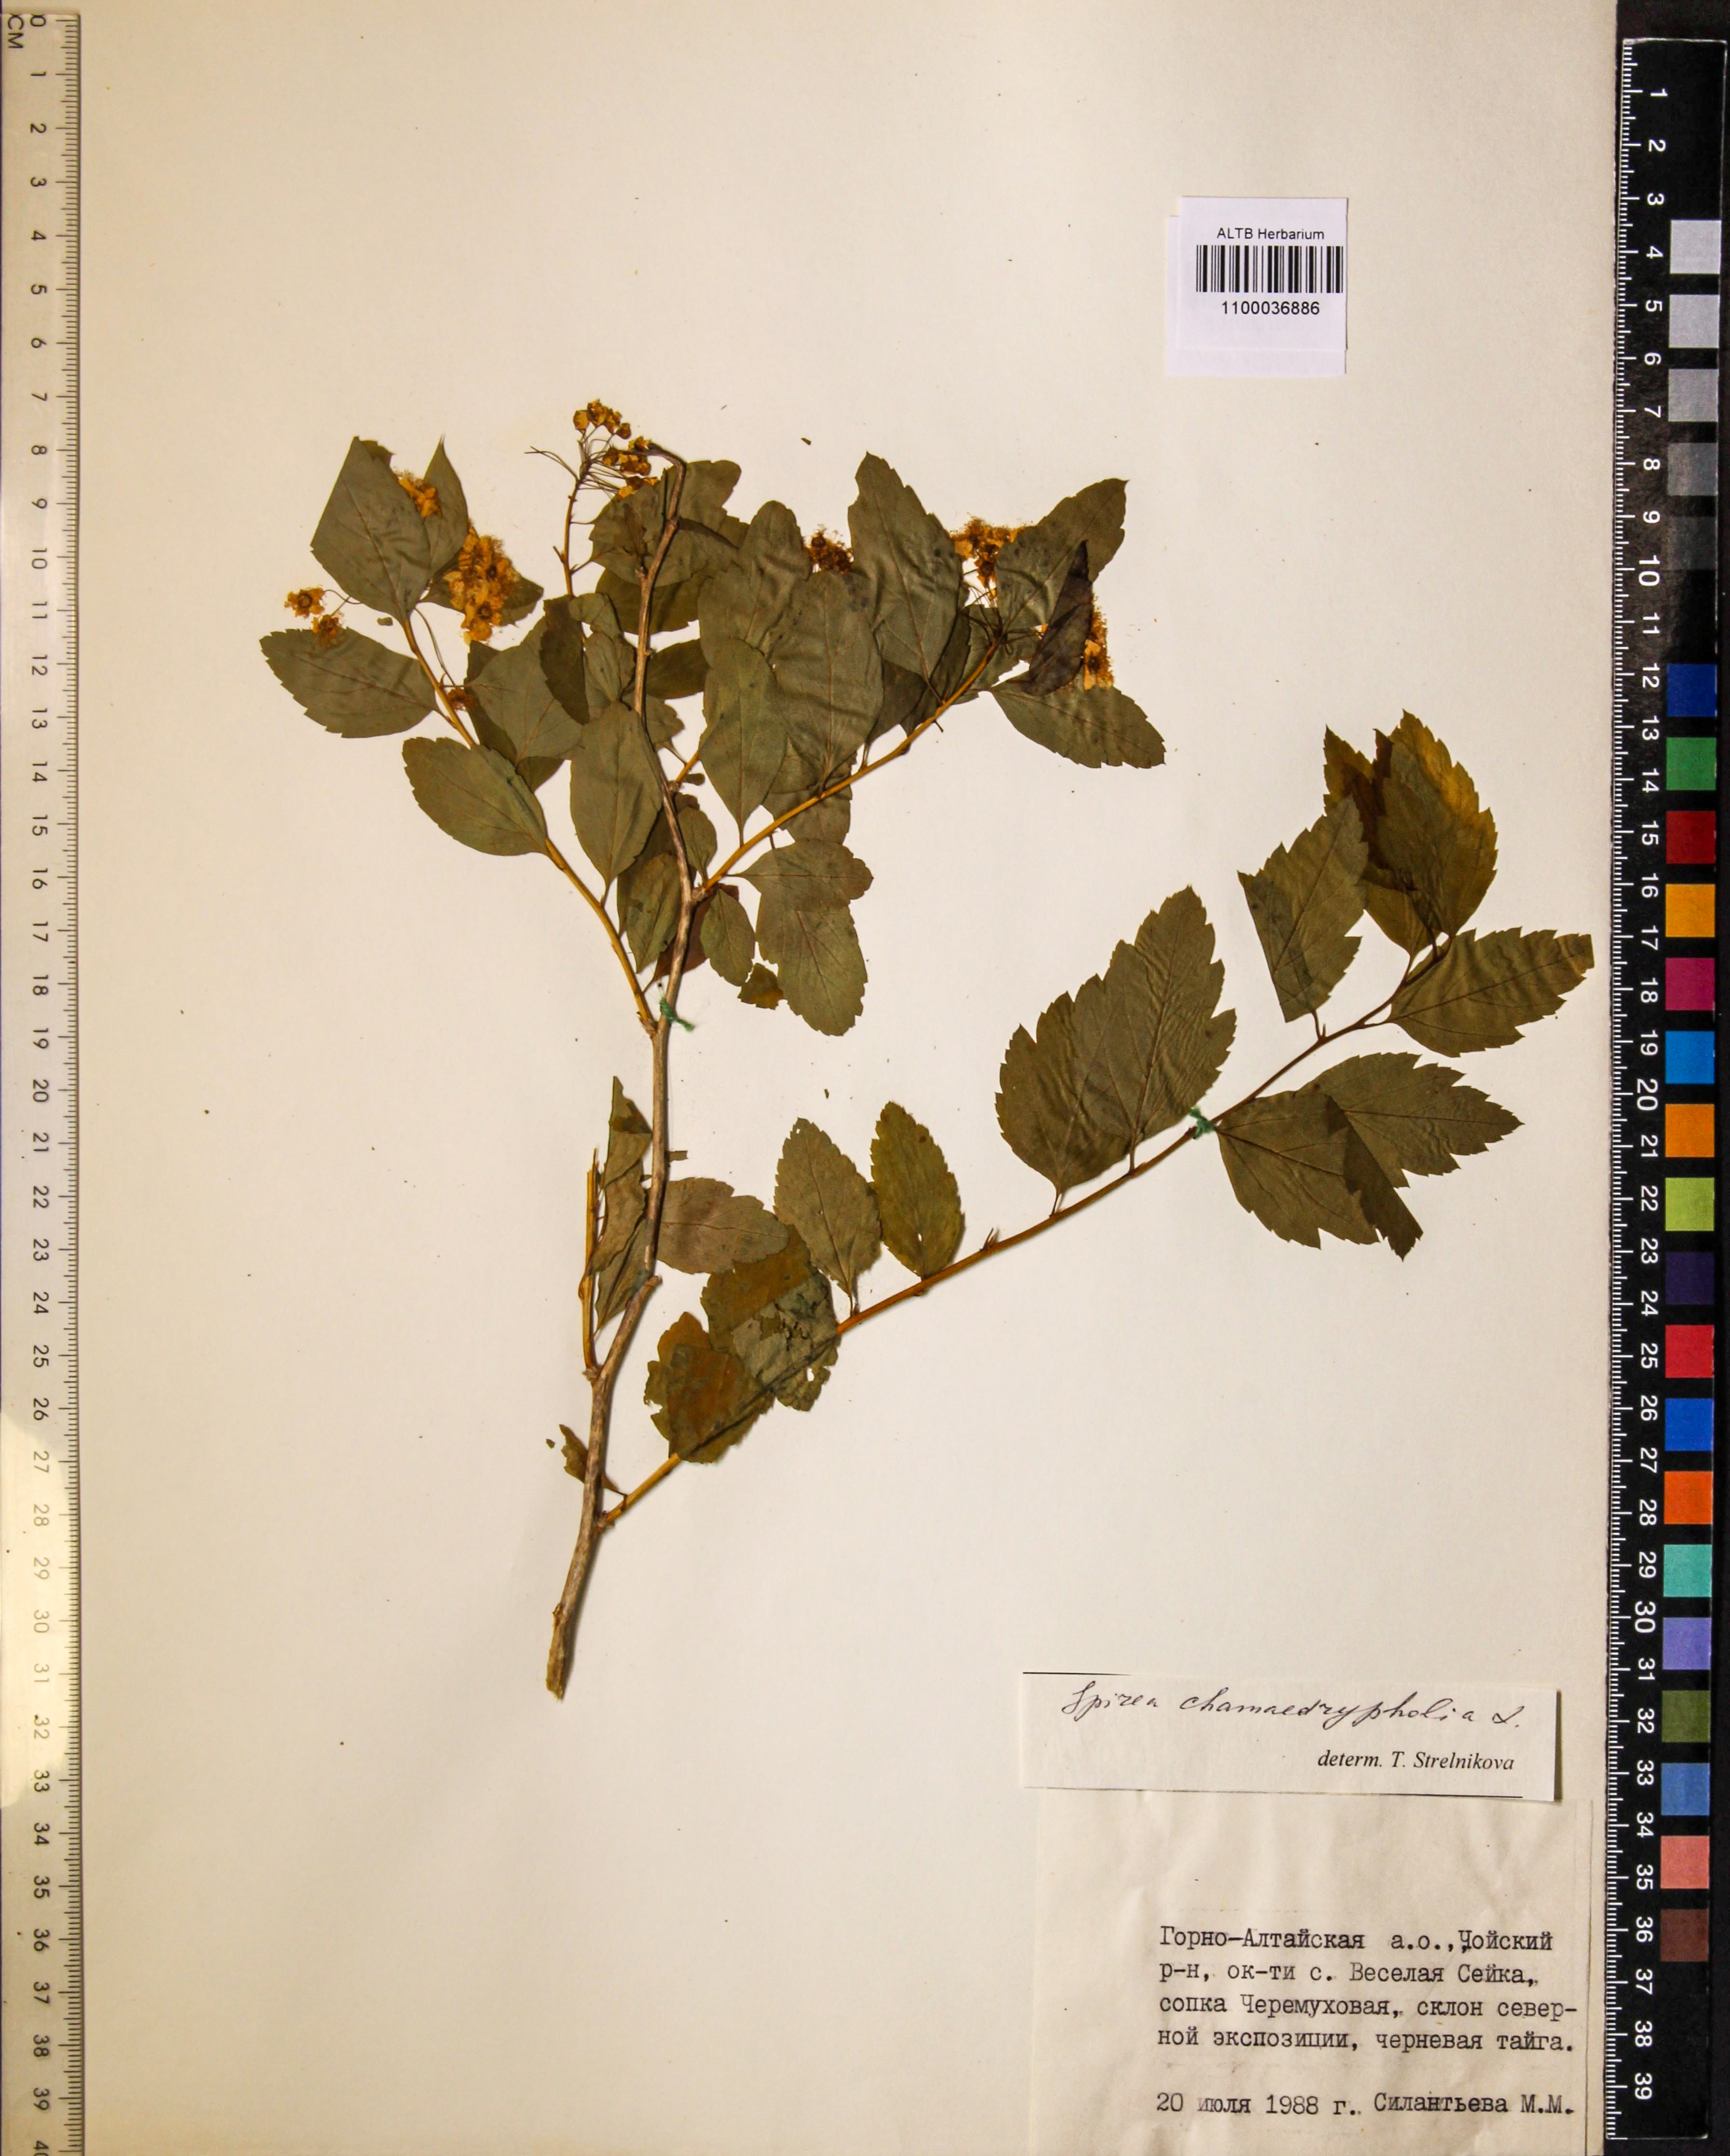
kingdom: Plantae
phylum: Tracheophyta
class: Magnoliopsida
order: Rosales
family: Rosaceae
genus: Spiraea
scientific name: Spiraea chamaedryfolia
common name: Elm-leaved spiraea
